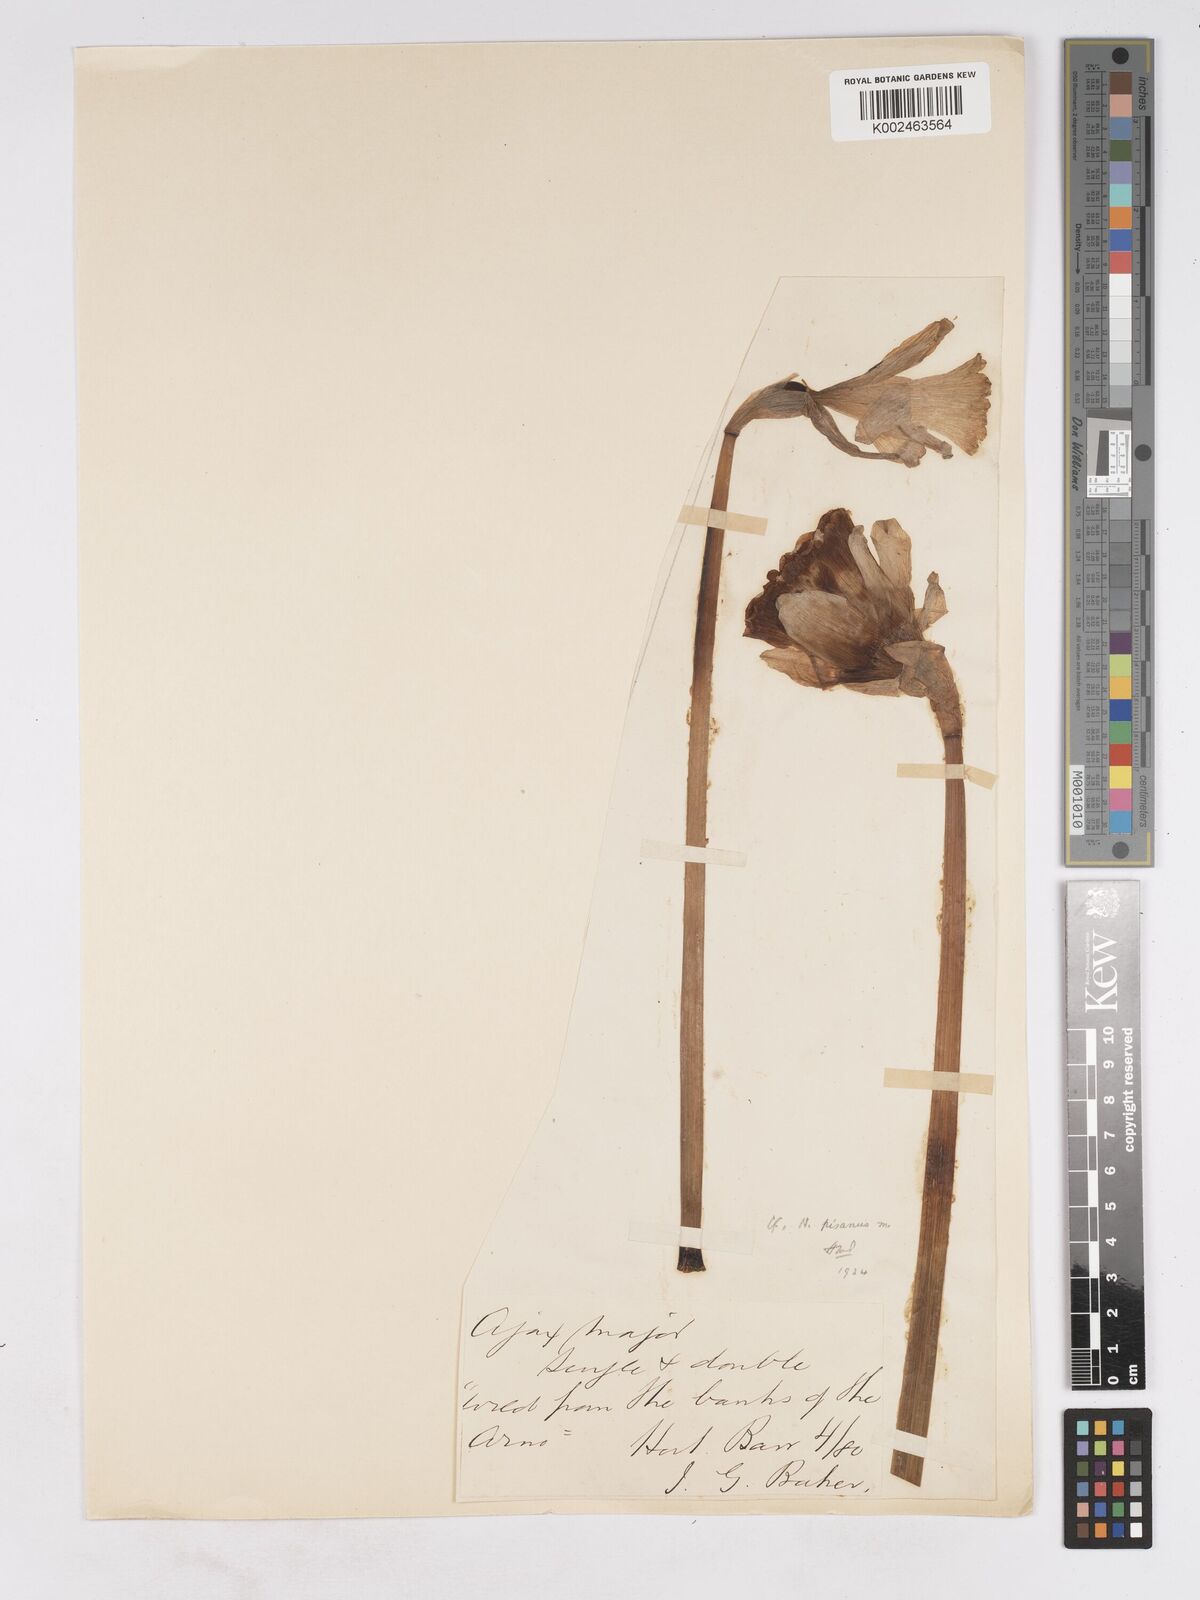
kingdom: Plantae
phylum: Tracheophyta
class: Liliopsida
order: Asparagales
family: Amaryllidaceae
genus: Narcissus
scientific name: Narcissus pseudonarcissus
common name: Daffodil
